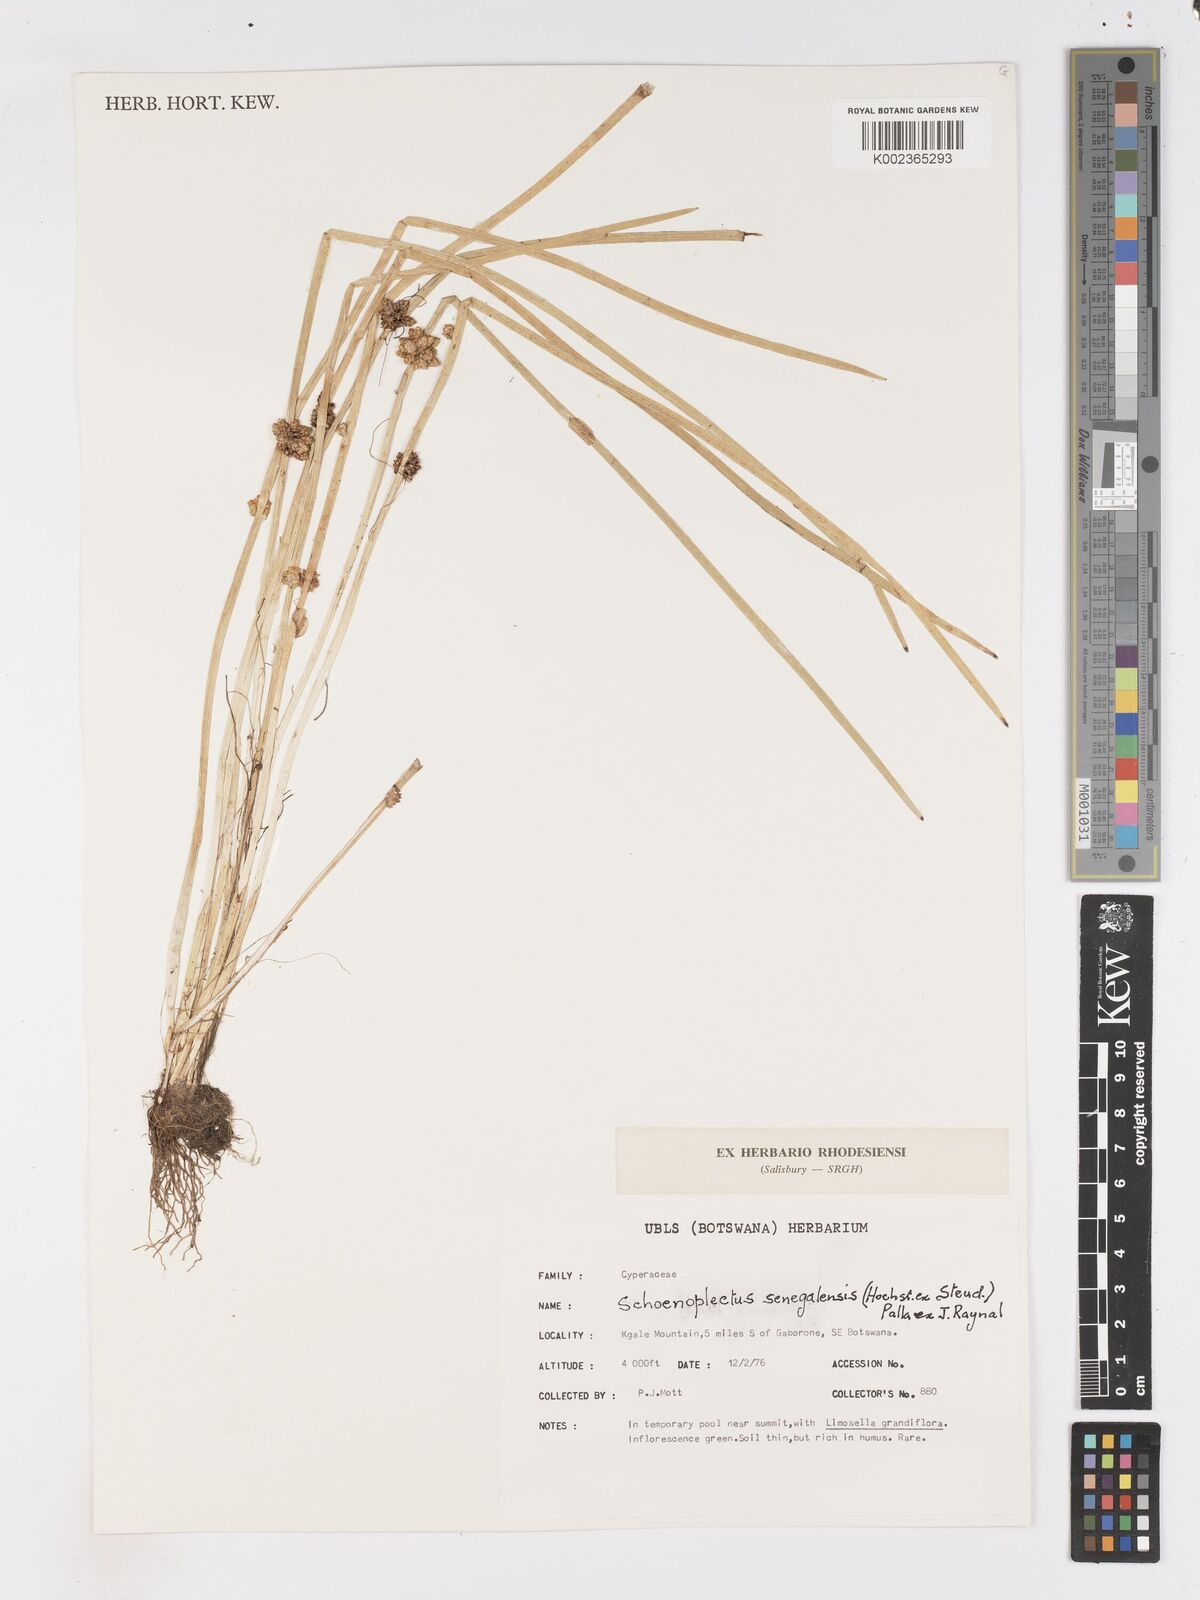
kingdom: Plantae
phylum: Tracheophyta
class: Liliopsida
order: Poales
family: Cyperaceae
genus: Schoenoplectiella
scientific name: Schoenoplectiella senegalensis
